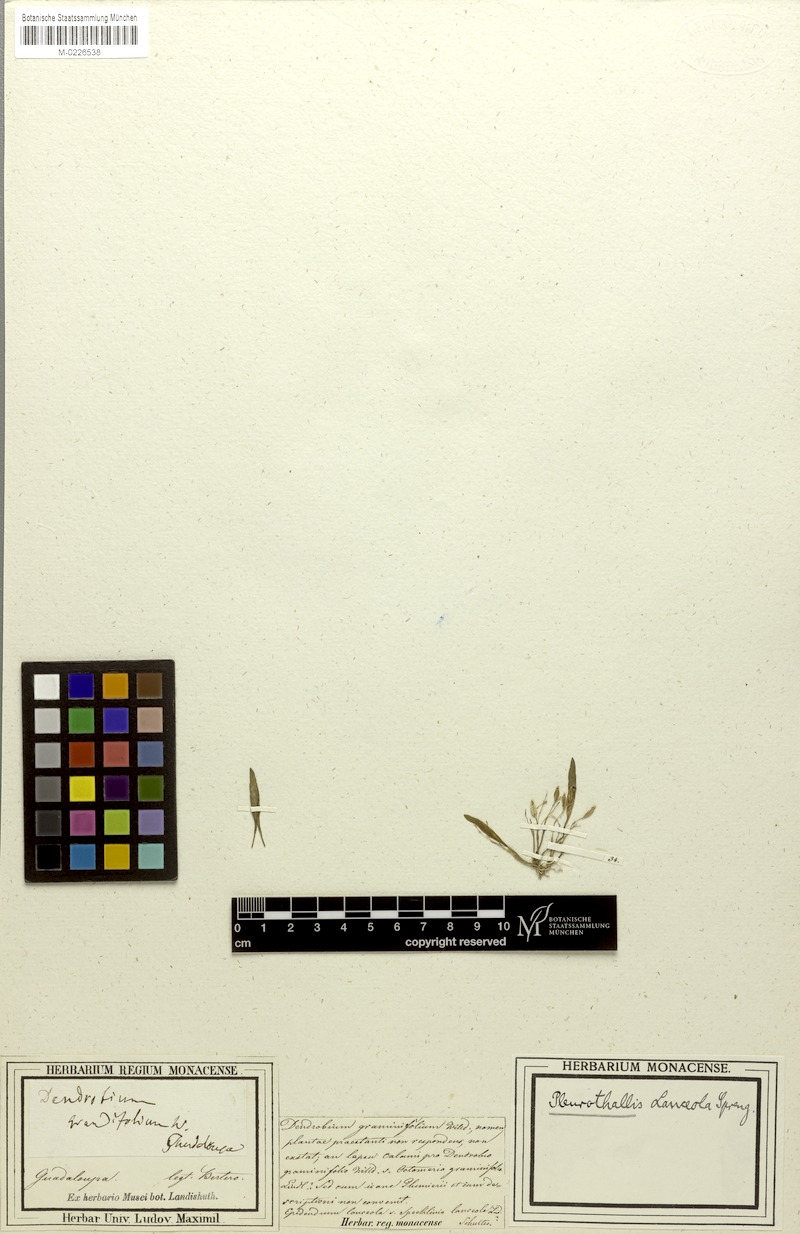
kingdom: Plantae
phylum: Tracheophyta
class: Liliopsida
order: Asparagales
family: Orchidaceae
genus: Specklinia
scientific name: Specklinia lanceola
